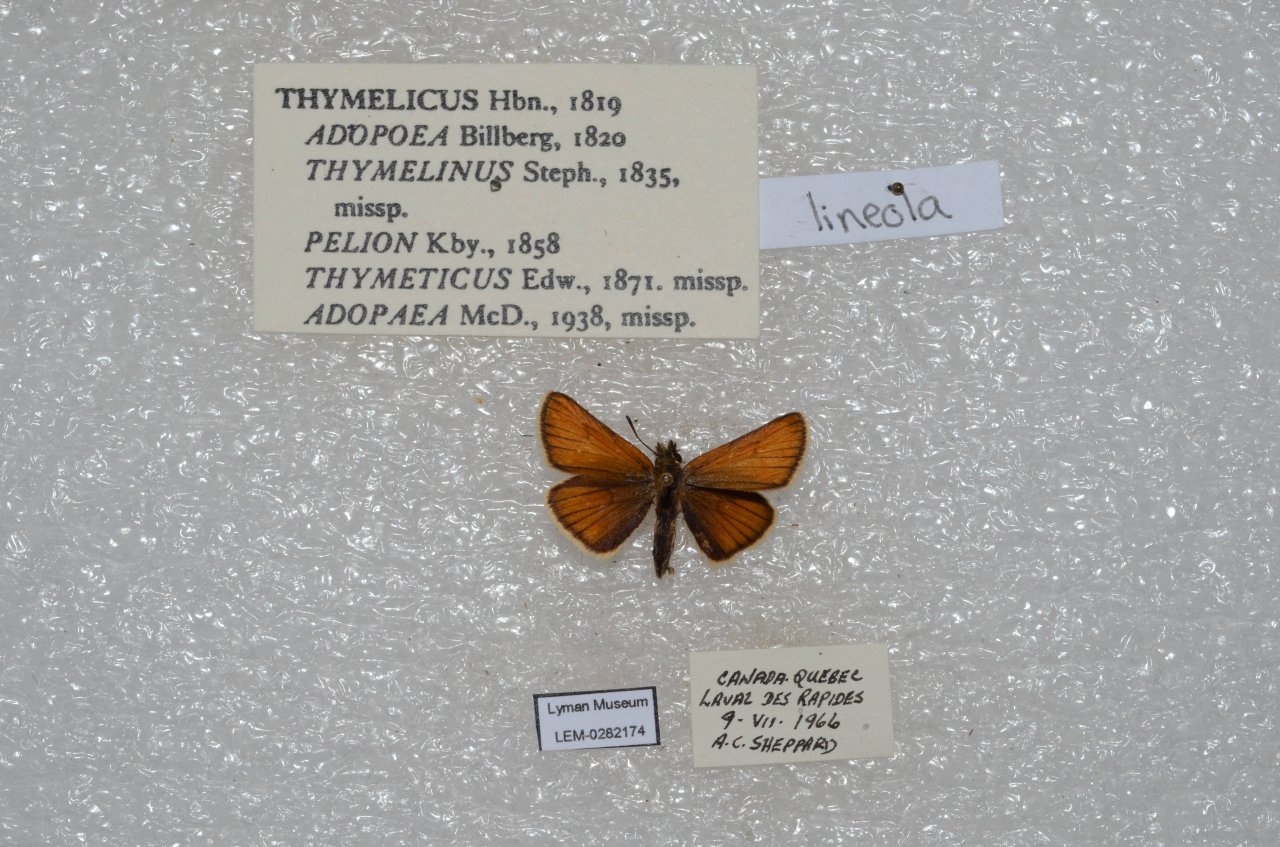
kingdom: Animalia
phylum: Arthropoda
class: Insecta
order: Lepidoptera
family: Hesperiidae
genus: Thymelicus
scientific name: Thymelicus lineola
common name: European Skipper
